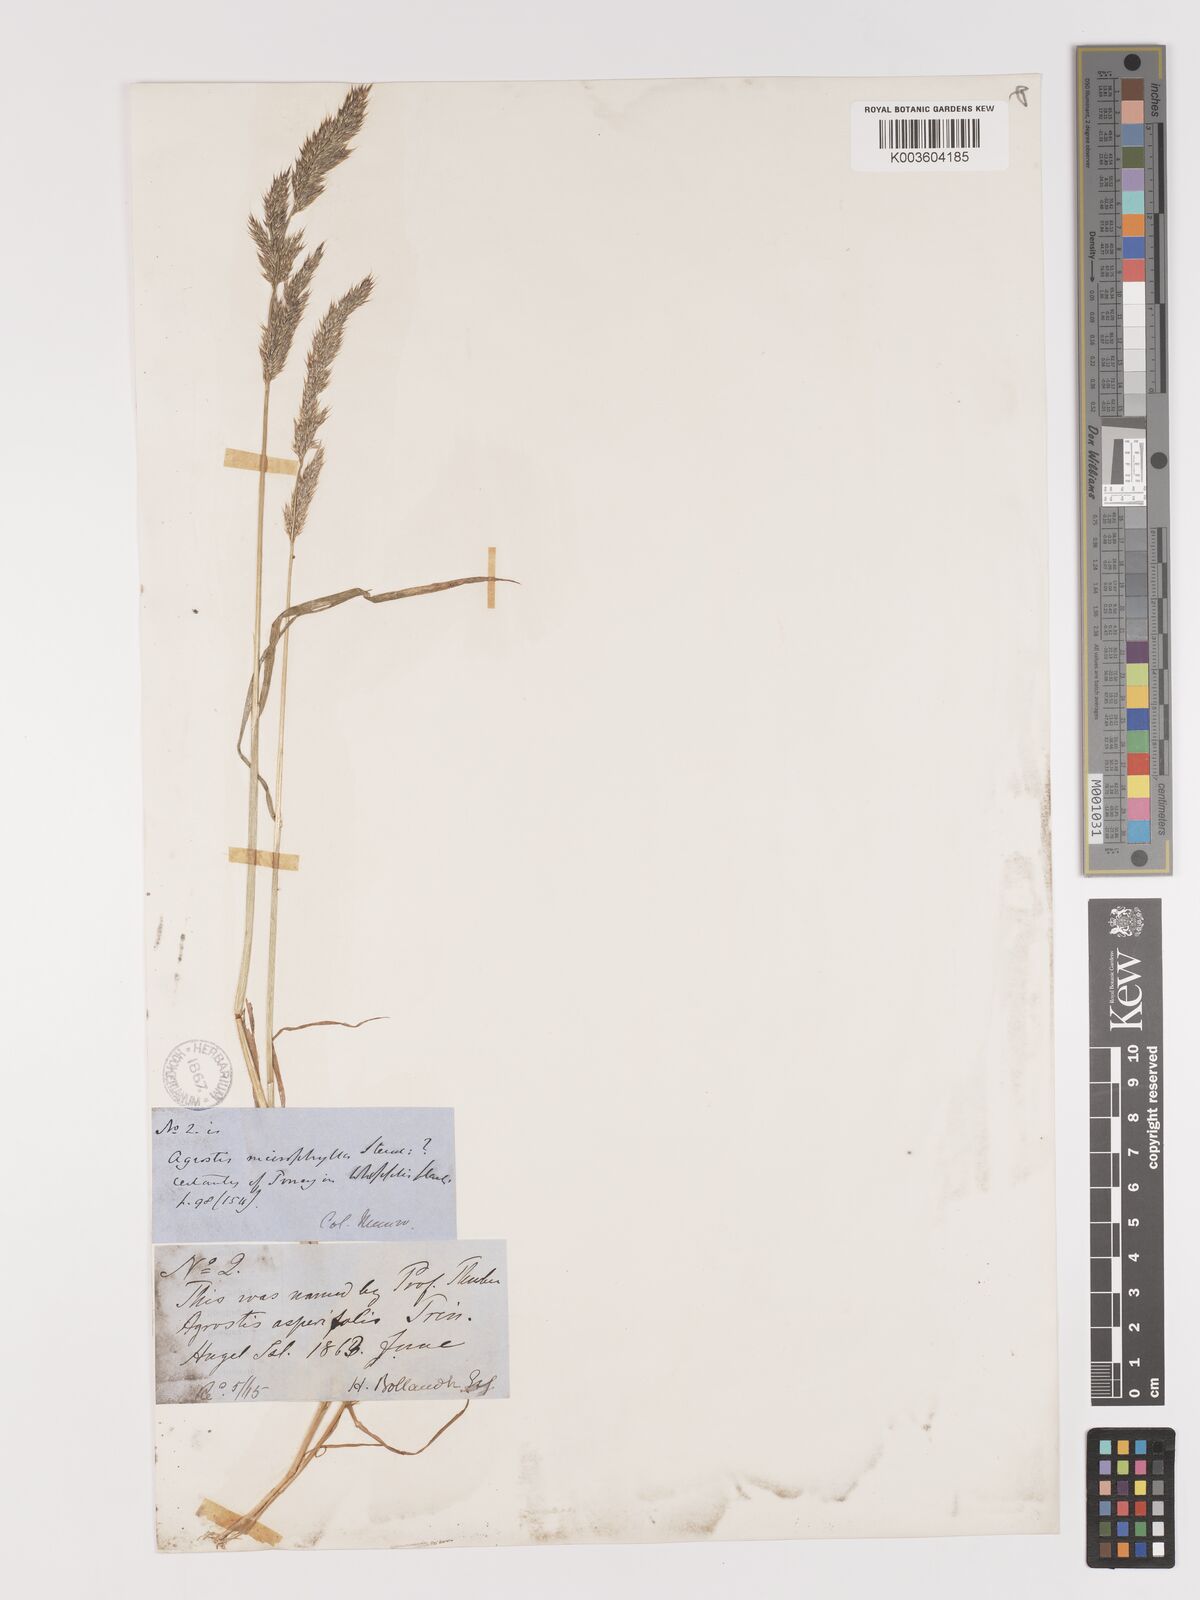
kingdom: Plantae
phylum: Tracheophyta
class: Liliopsida
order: Poales
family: Poaceae
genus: Agrostis
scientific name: Agrostis microphylla
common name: Small-leaf bent
